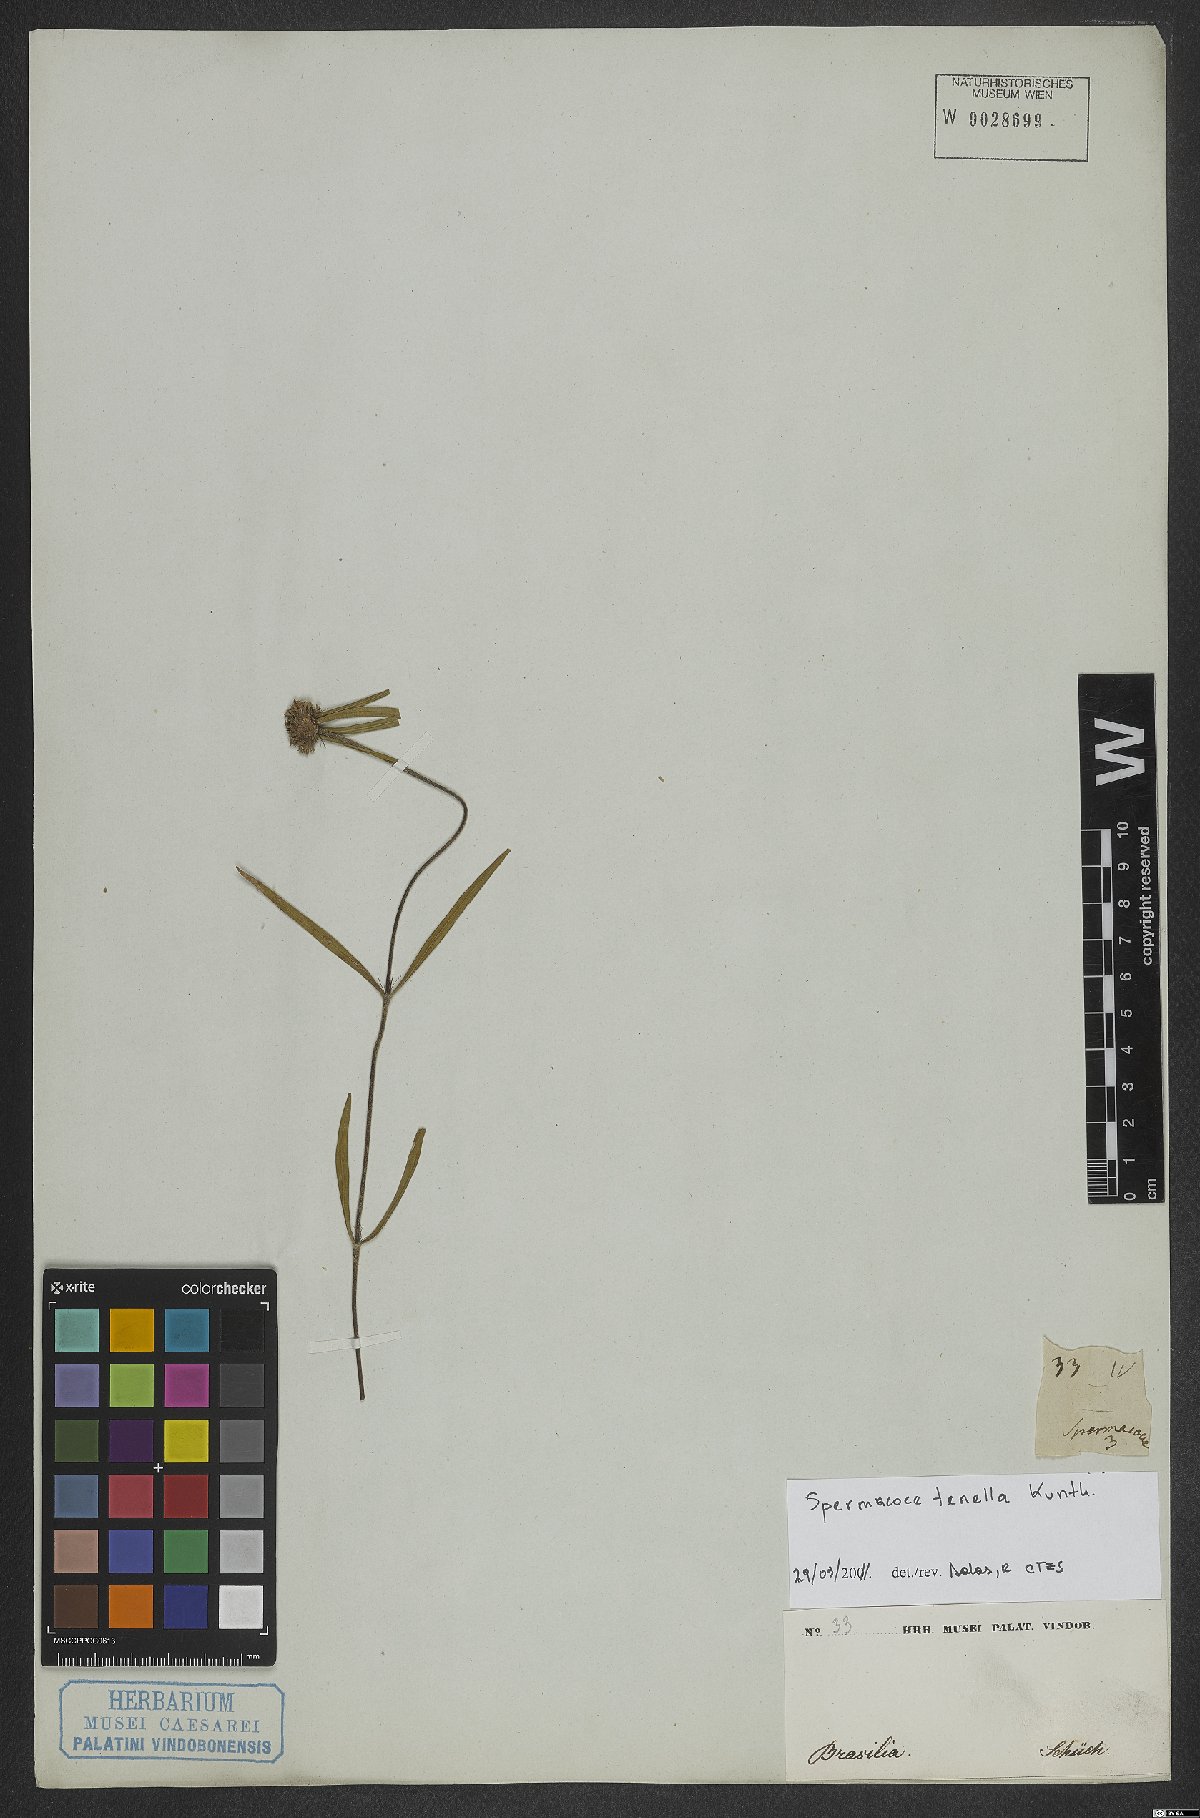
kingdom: Plantae
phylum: Tracheophyta
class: Magnoliopsida
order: Gentianales
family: Rubiaceae
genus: Spermacoce
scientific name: Spermacoce orinocensis
